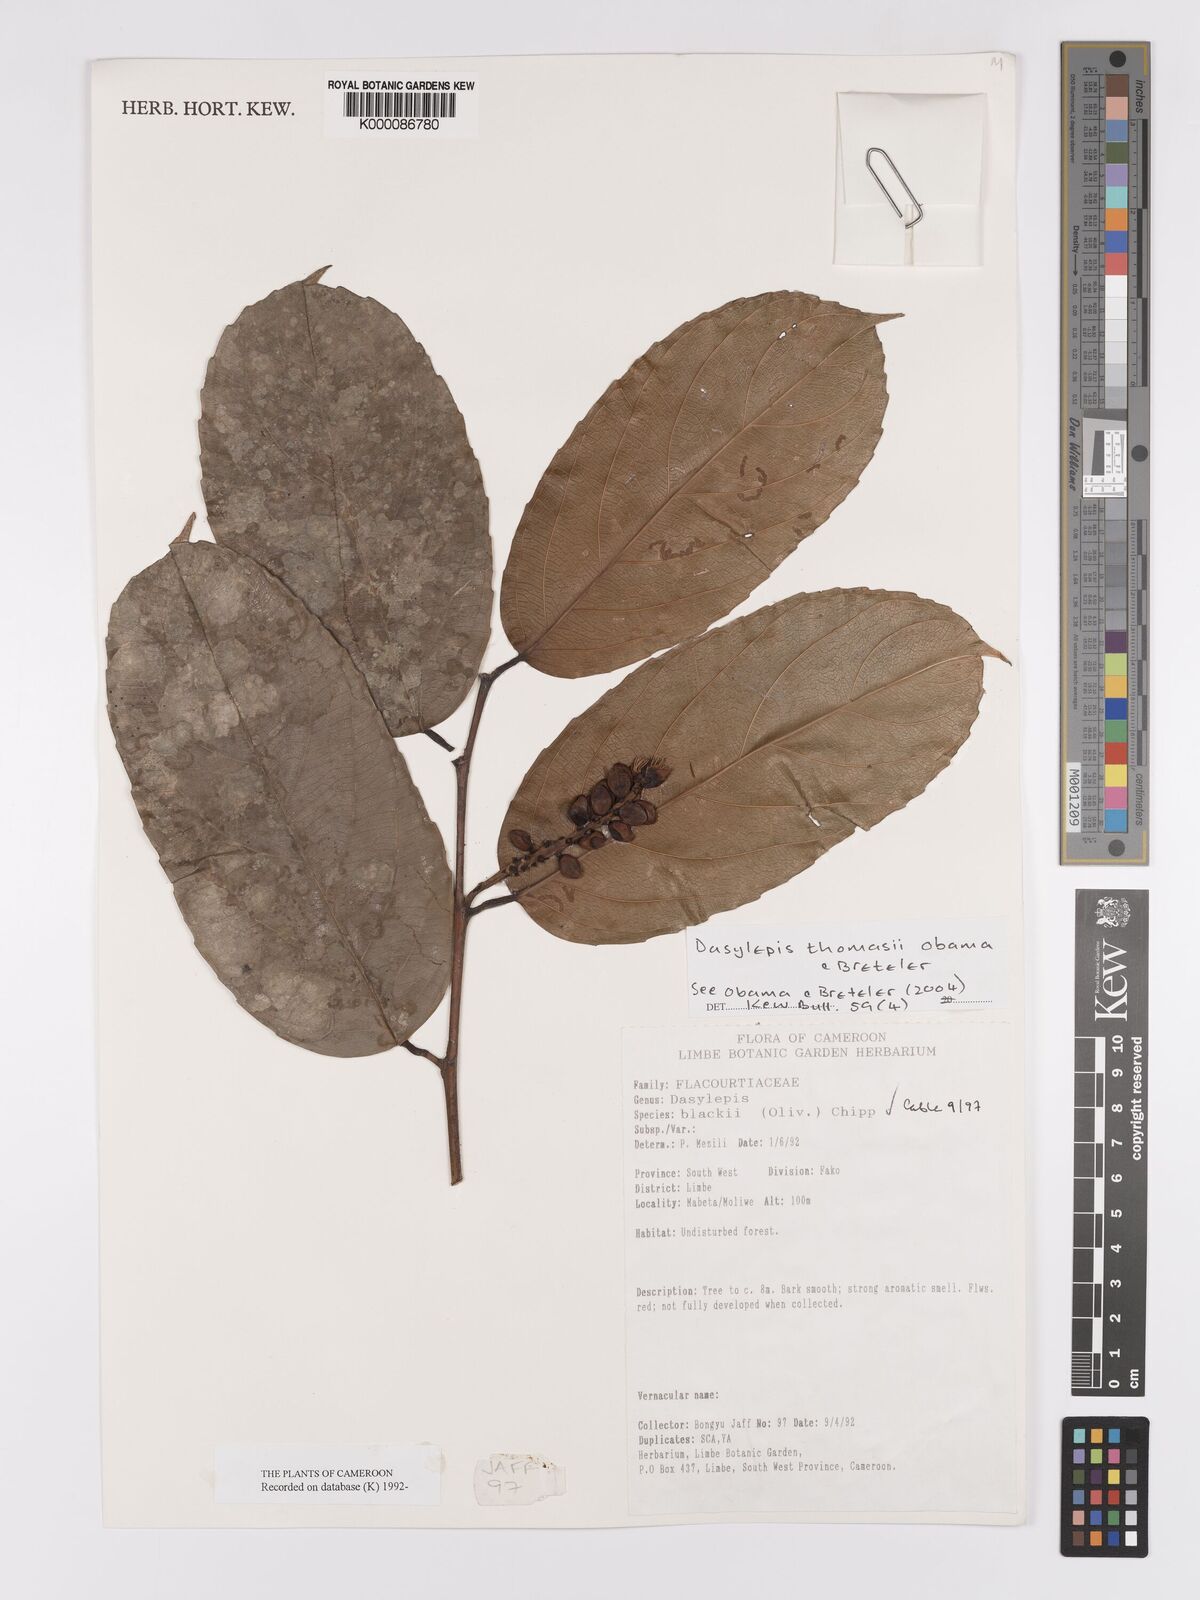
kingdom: Plantae
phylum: Tracheophyta
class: Magnoliopsida
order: Malpighiales
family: Achariaceae
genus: Dasylepis
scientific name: Dasylepis blackii
